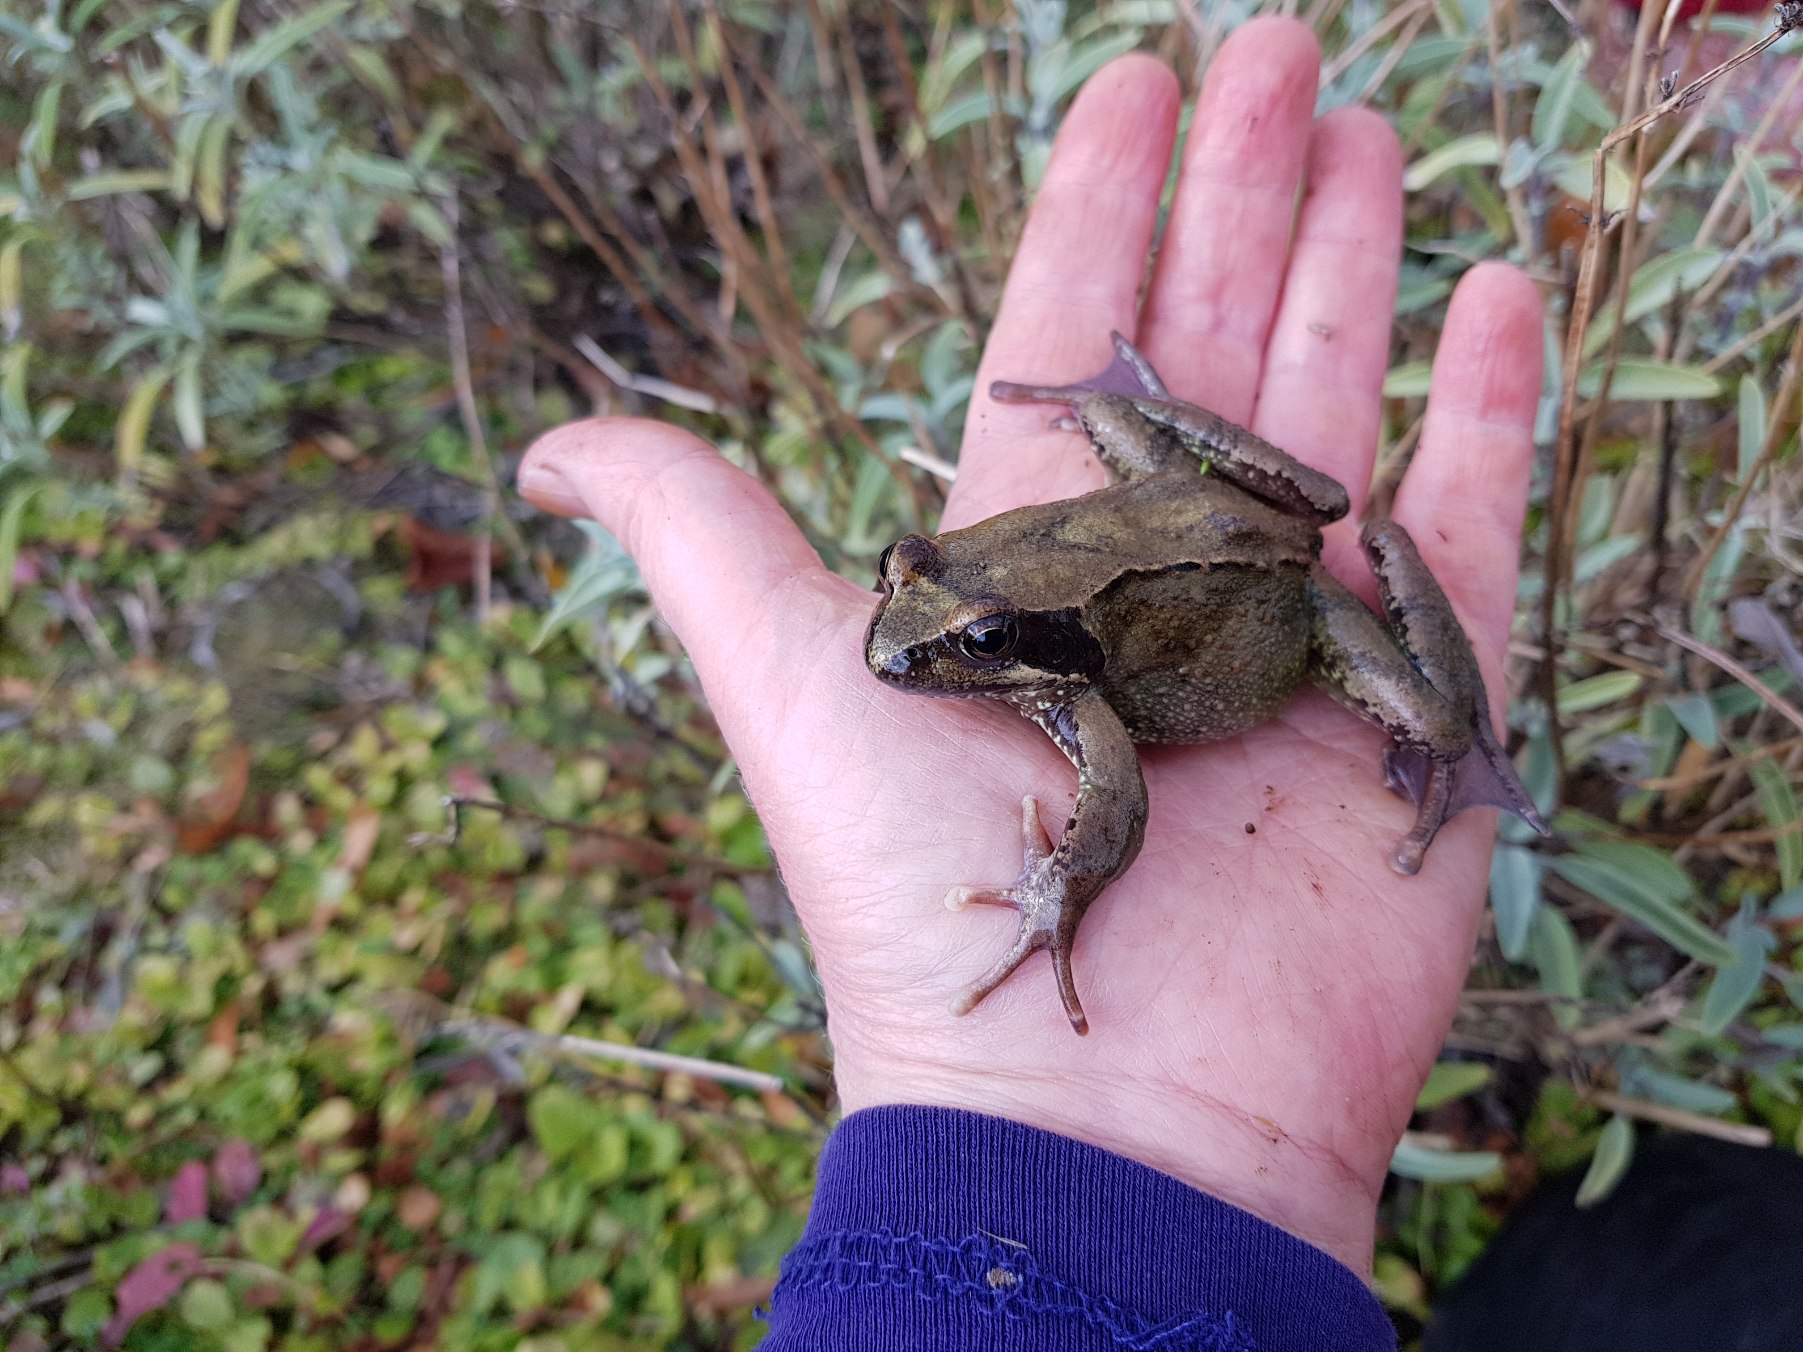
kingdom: Animalia
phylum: Chordata
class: Amphibia
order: Anura
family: Ranidae
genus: Rana
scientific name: Rana temporaria
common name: Butsnudet frø
